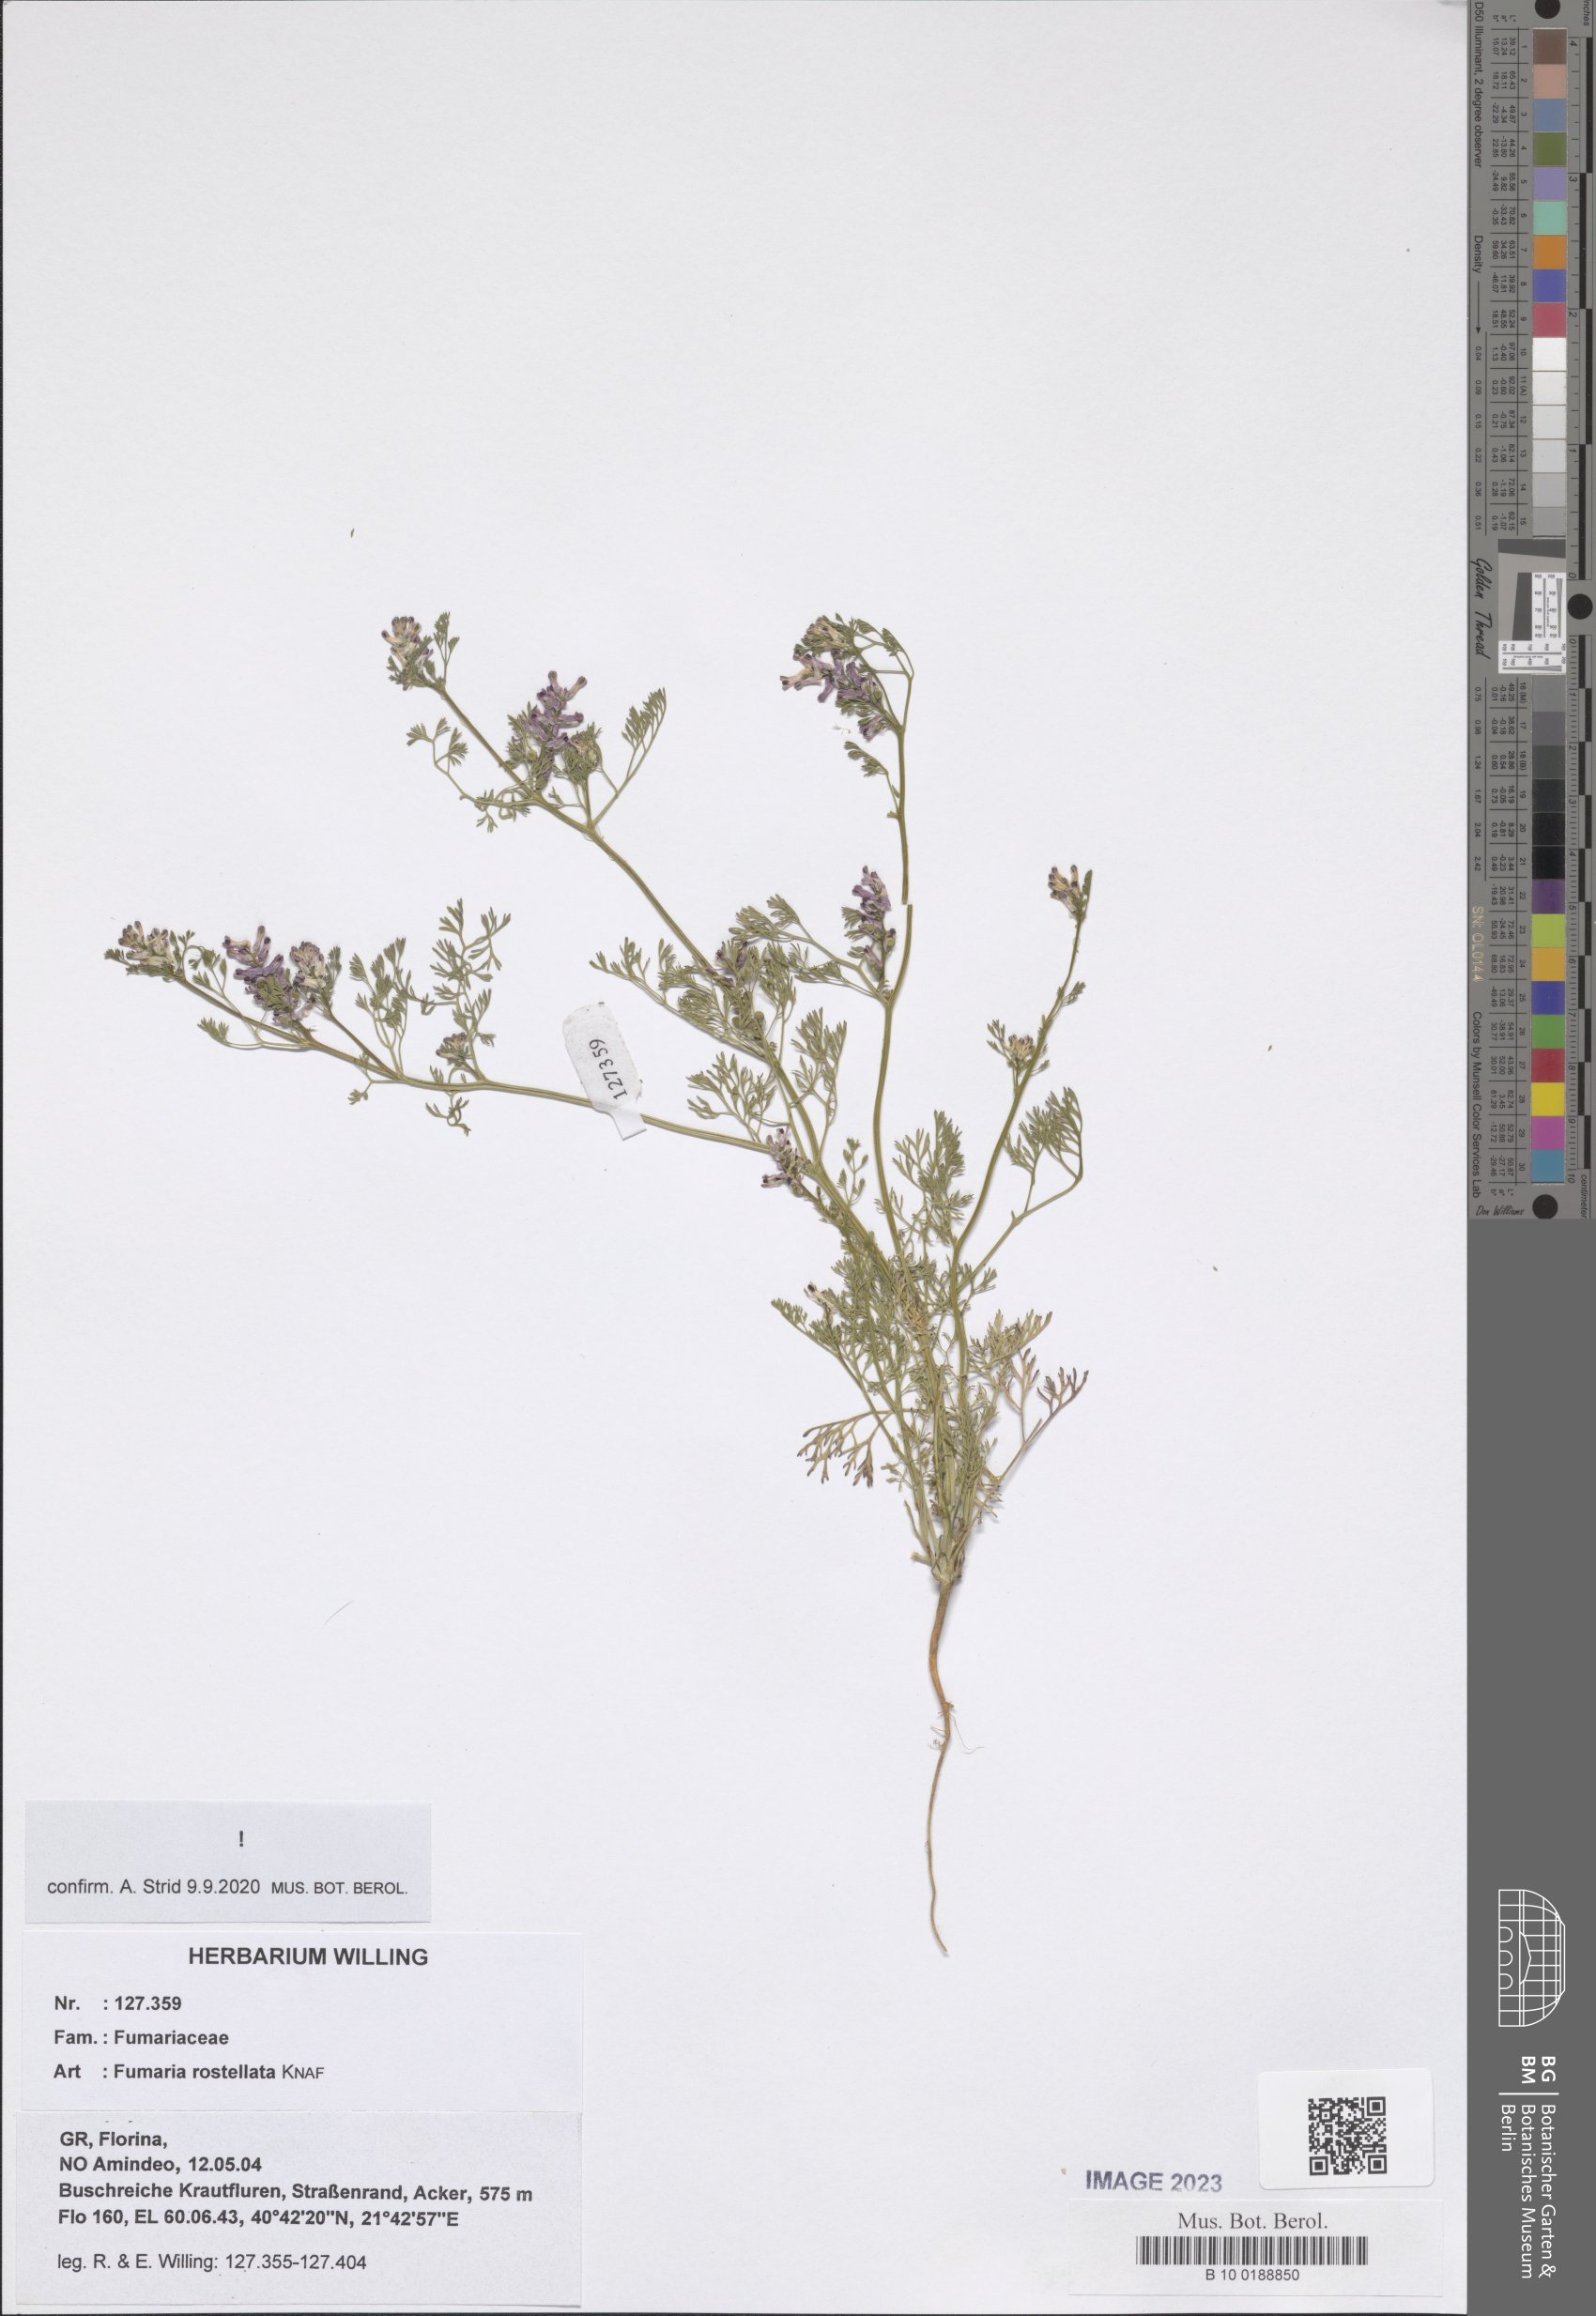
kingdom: Plantae
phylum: Tracheophyta
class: Magnoliopsida
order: Ranunculales
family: Papaveraceae
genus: Fumaria
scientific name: Fumaria rostellata
